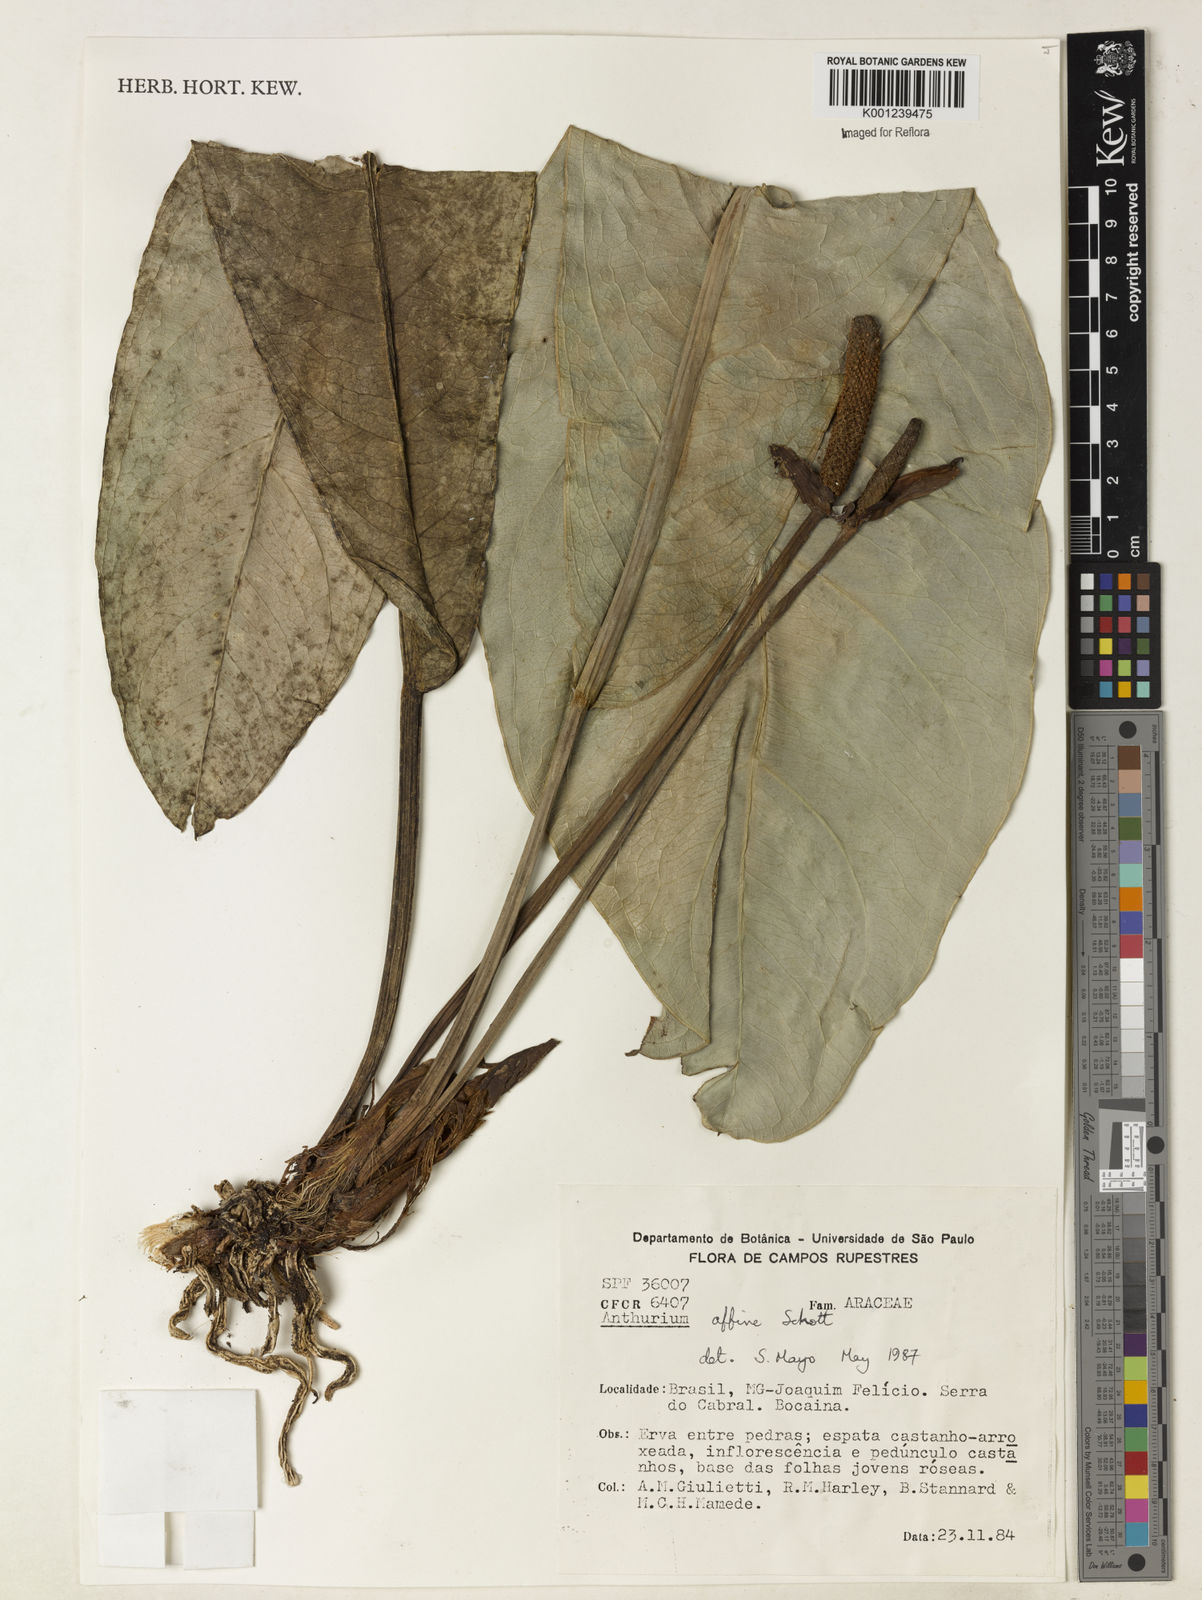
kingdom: Plantae
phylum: Tracheophyta
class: Liliopsida
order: Alismatales
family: Araceae
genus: Anthurium
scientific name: Anthurium affine
